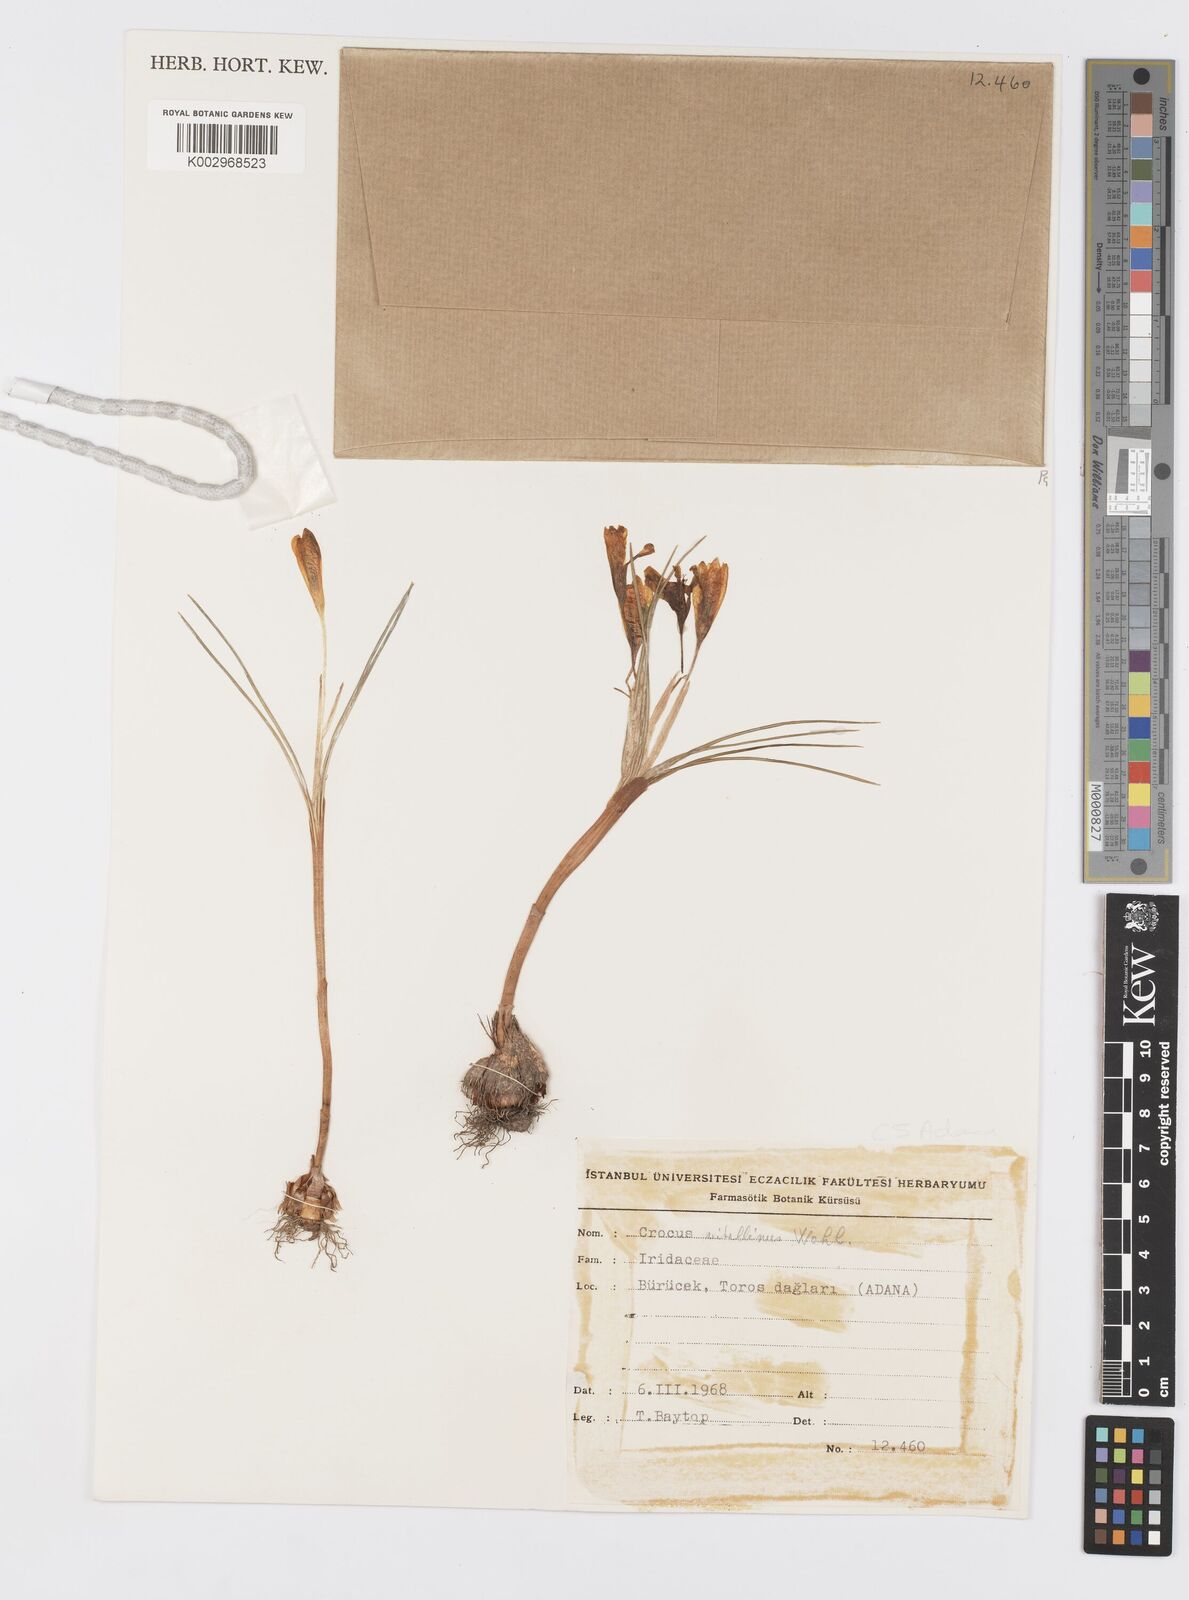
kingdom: Plantae
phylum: Tracheophyta
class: Liliopsida
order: Asparagales
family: Iridaceae
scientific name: Iridaceae
